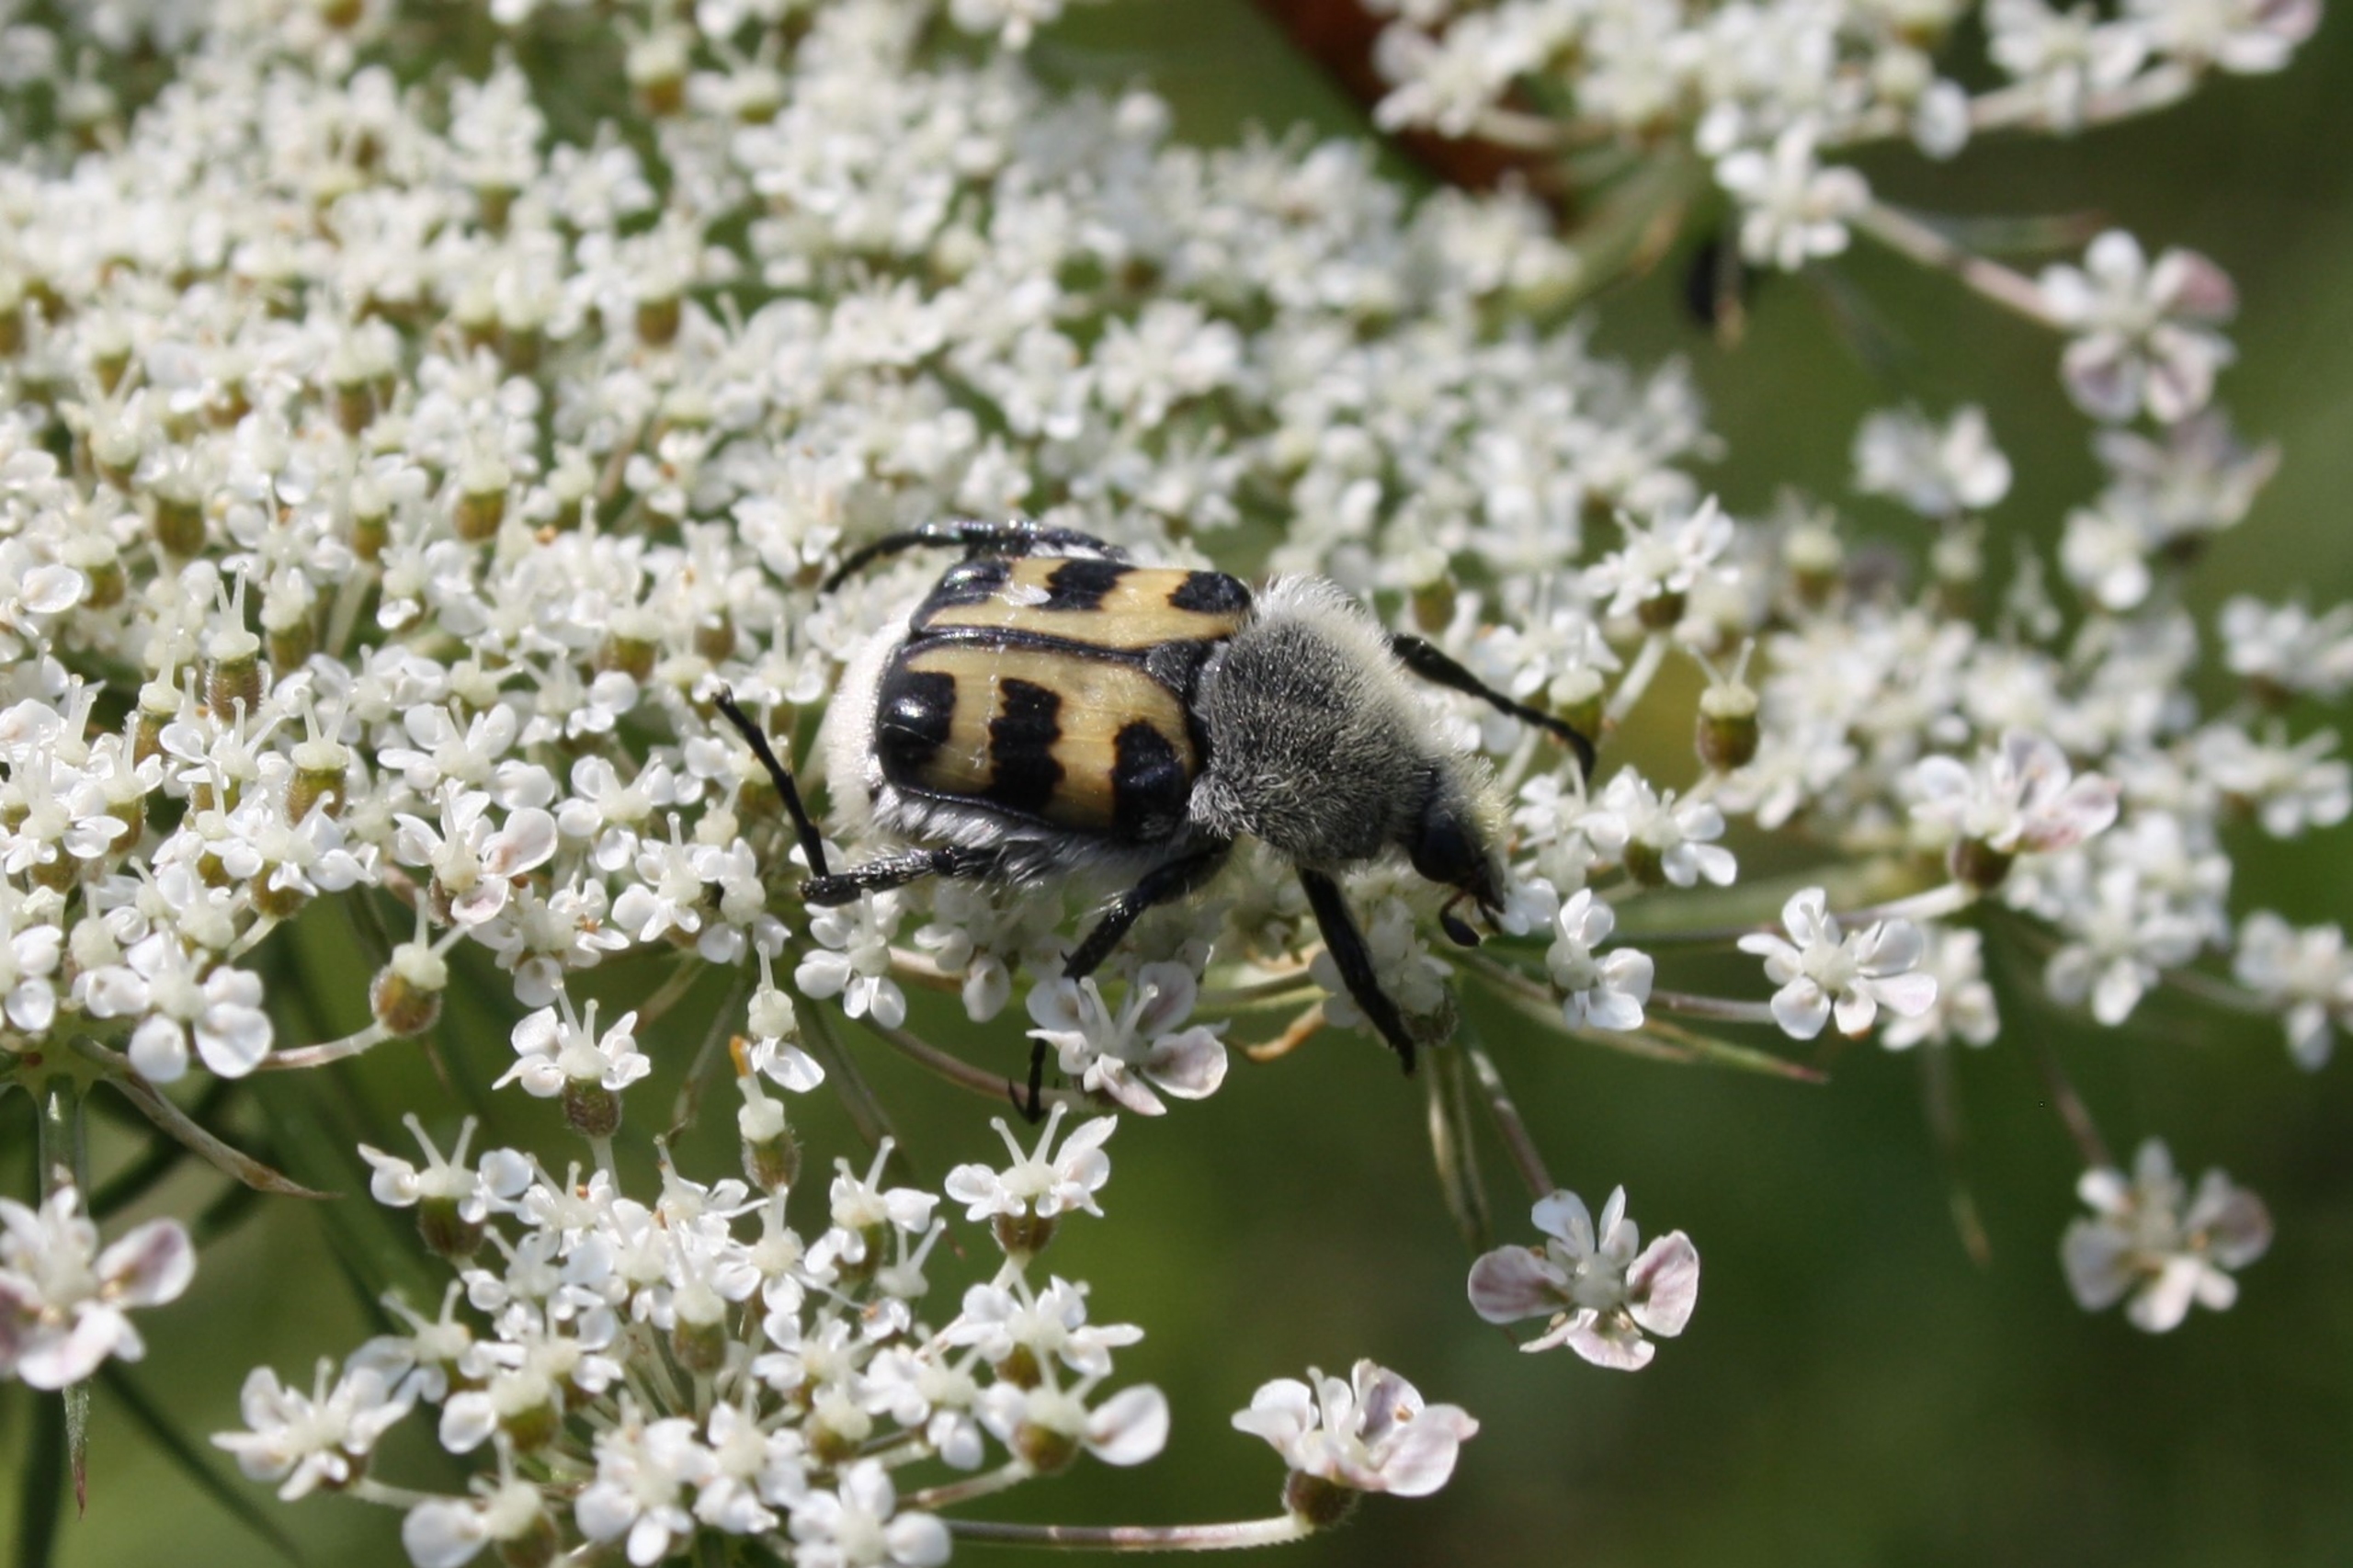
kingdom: Animalia
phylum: Arthropoda
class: Insecta
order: Coleoptera
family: Scarabaeidae
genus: Trichius
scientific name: Trichius gallicus
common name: Lille humlebille
